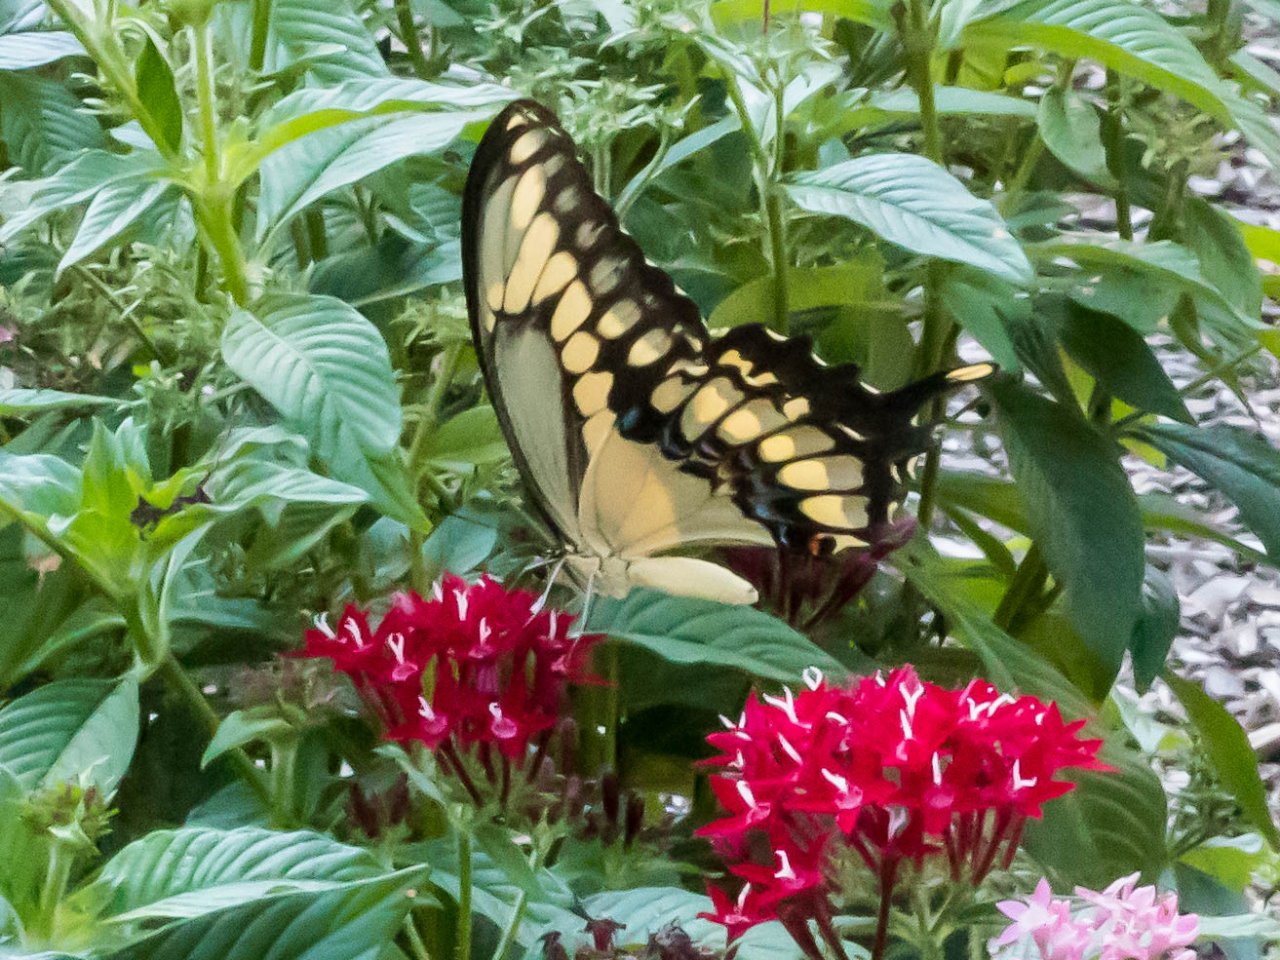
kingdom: Animalia
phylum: Arthropoda
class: Insecta
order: Lepidoptera
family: Papilionidae
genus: Papilio
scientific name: Papilio rumiko
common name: Western Giant Swallowtail
